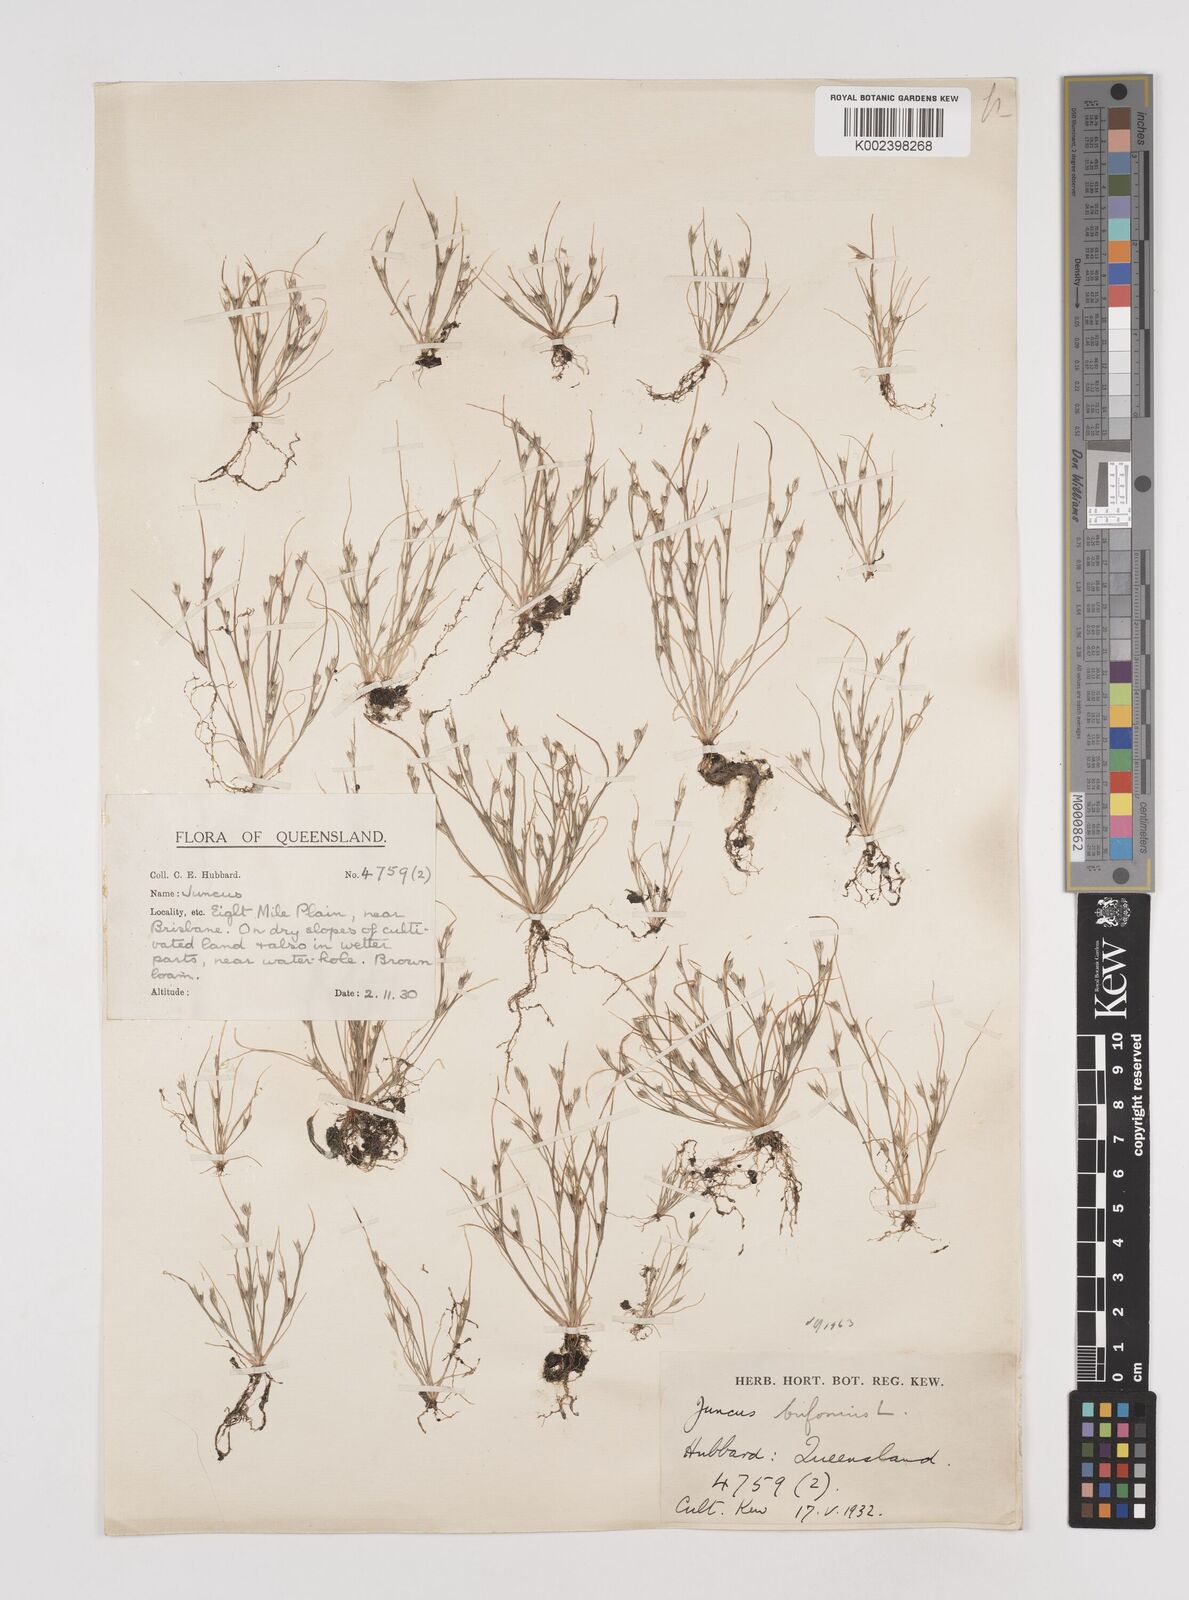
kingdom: Plantae
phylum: Tracheophyta
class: Liliopsida
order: Poales
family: Juncaceae
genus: Juncus
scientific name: Juncus bufonius
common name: Toad rush
